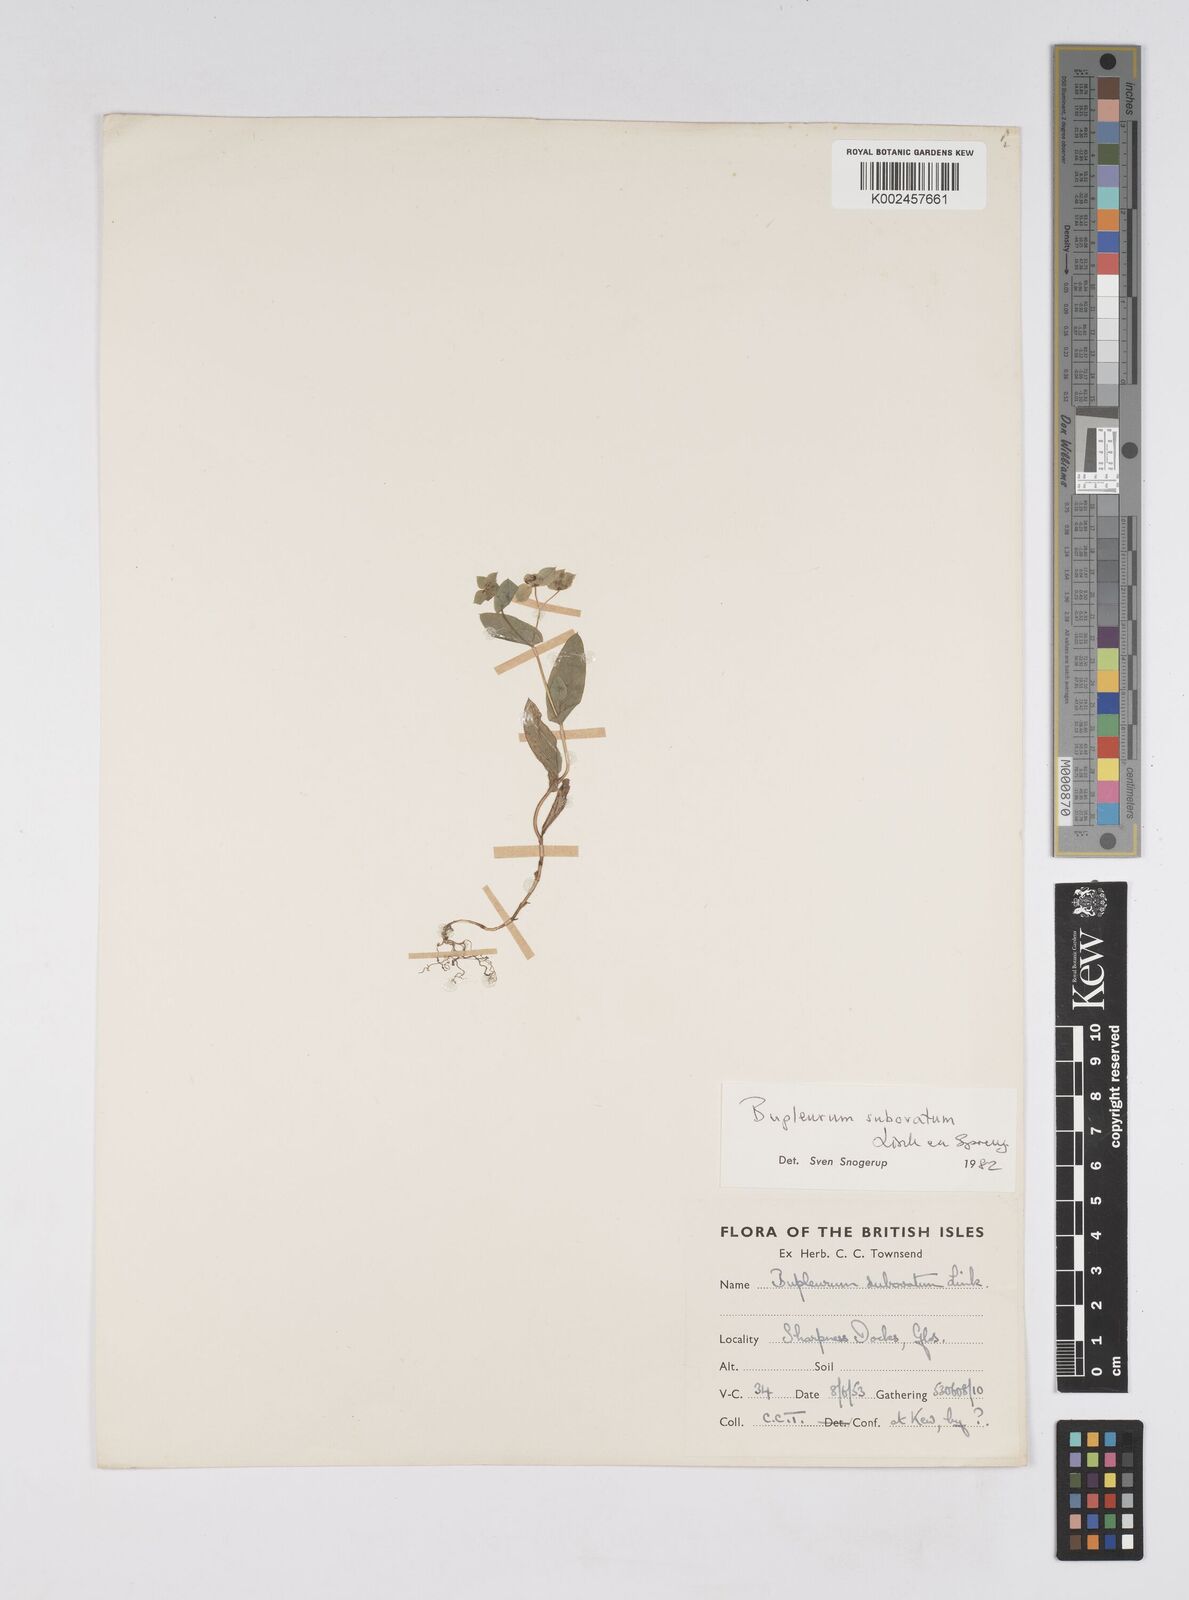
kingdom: Plantae
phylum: Tracheophyta
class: Magnoliopsida
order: Apiales
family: Apiaceae
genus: Bupleurum
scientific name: Bupleurum subovatum
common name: False thorow-wax
